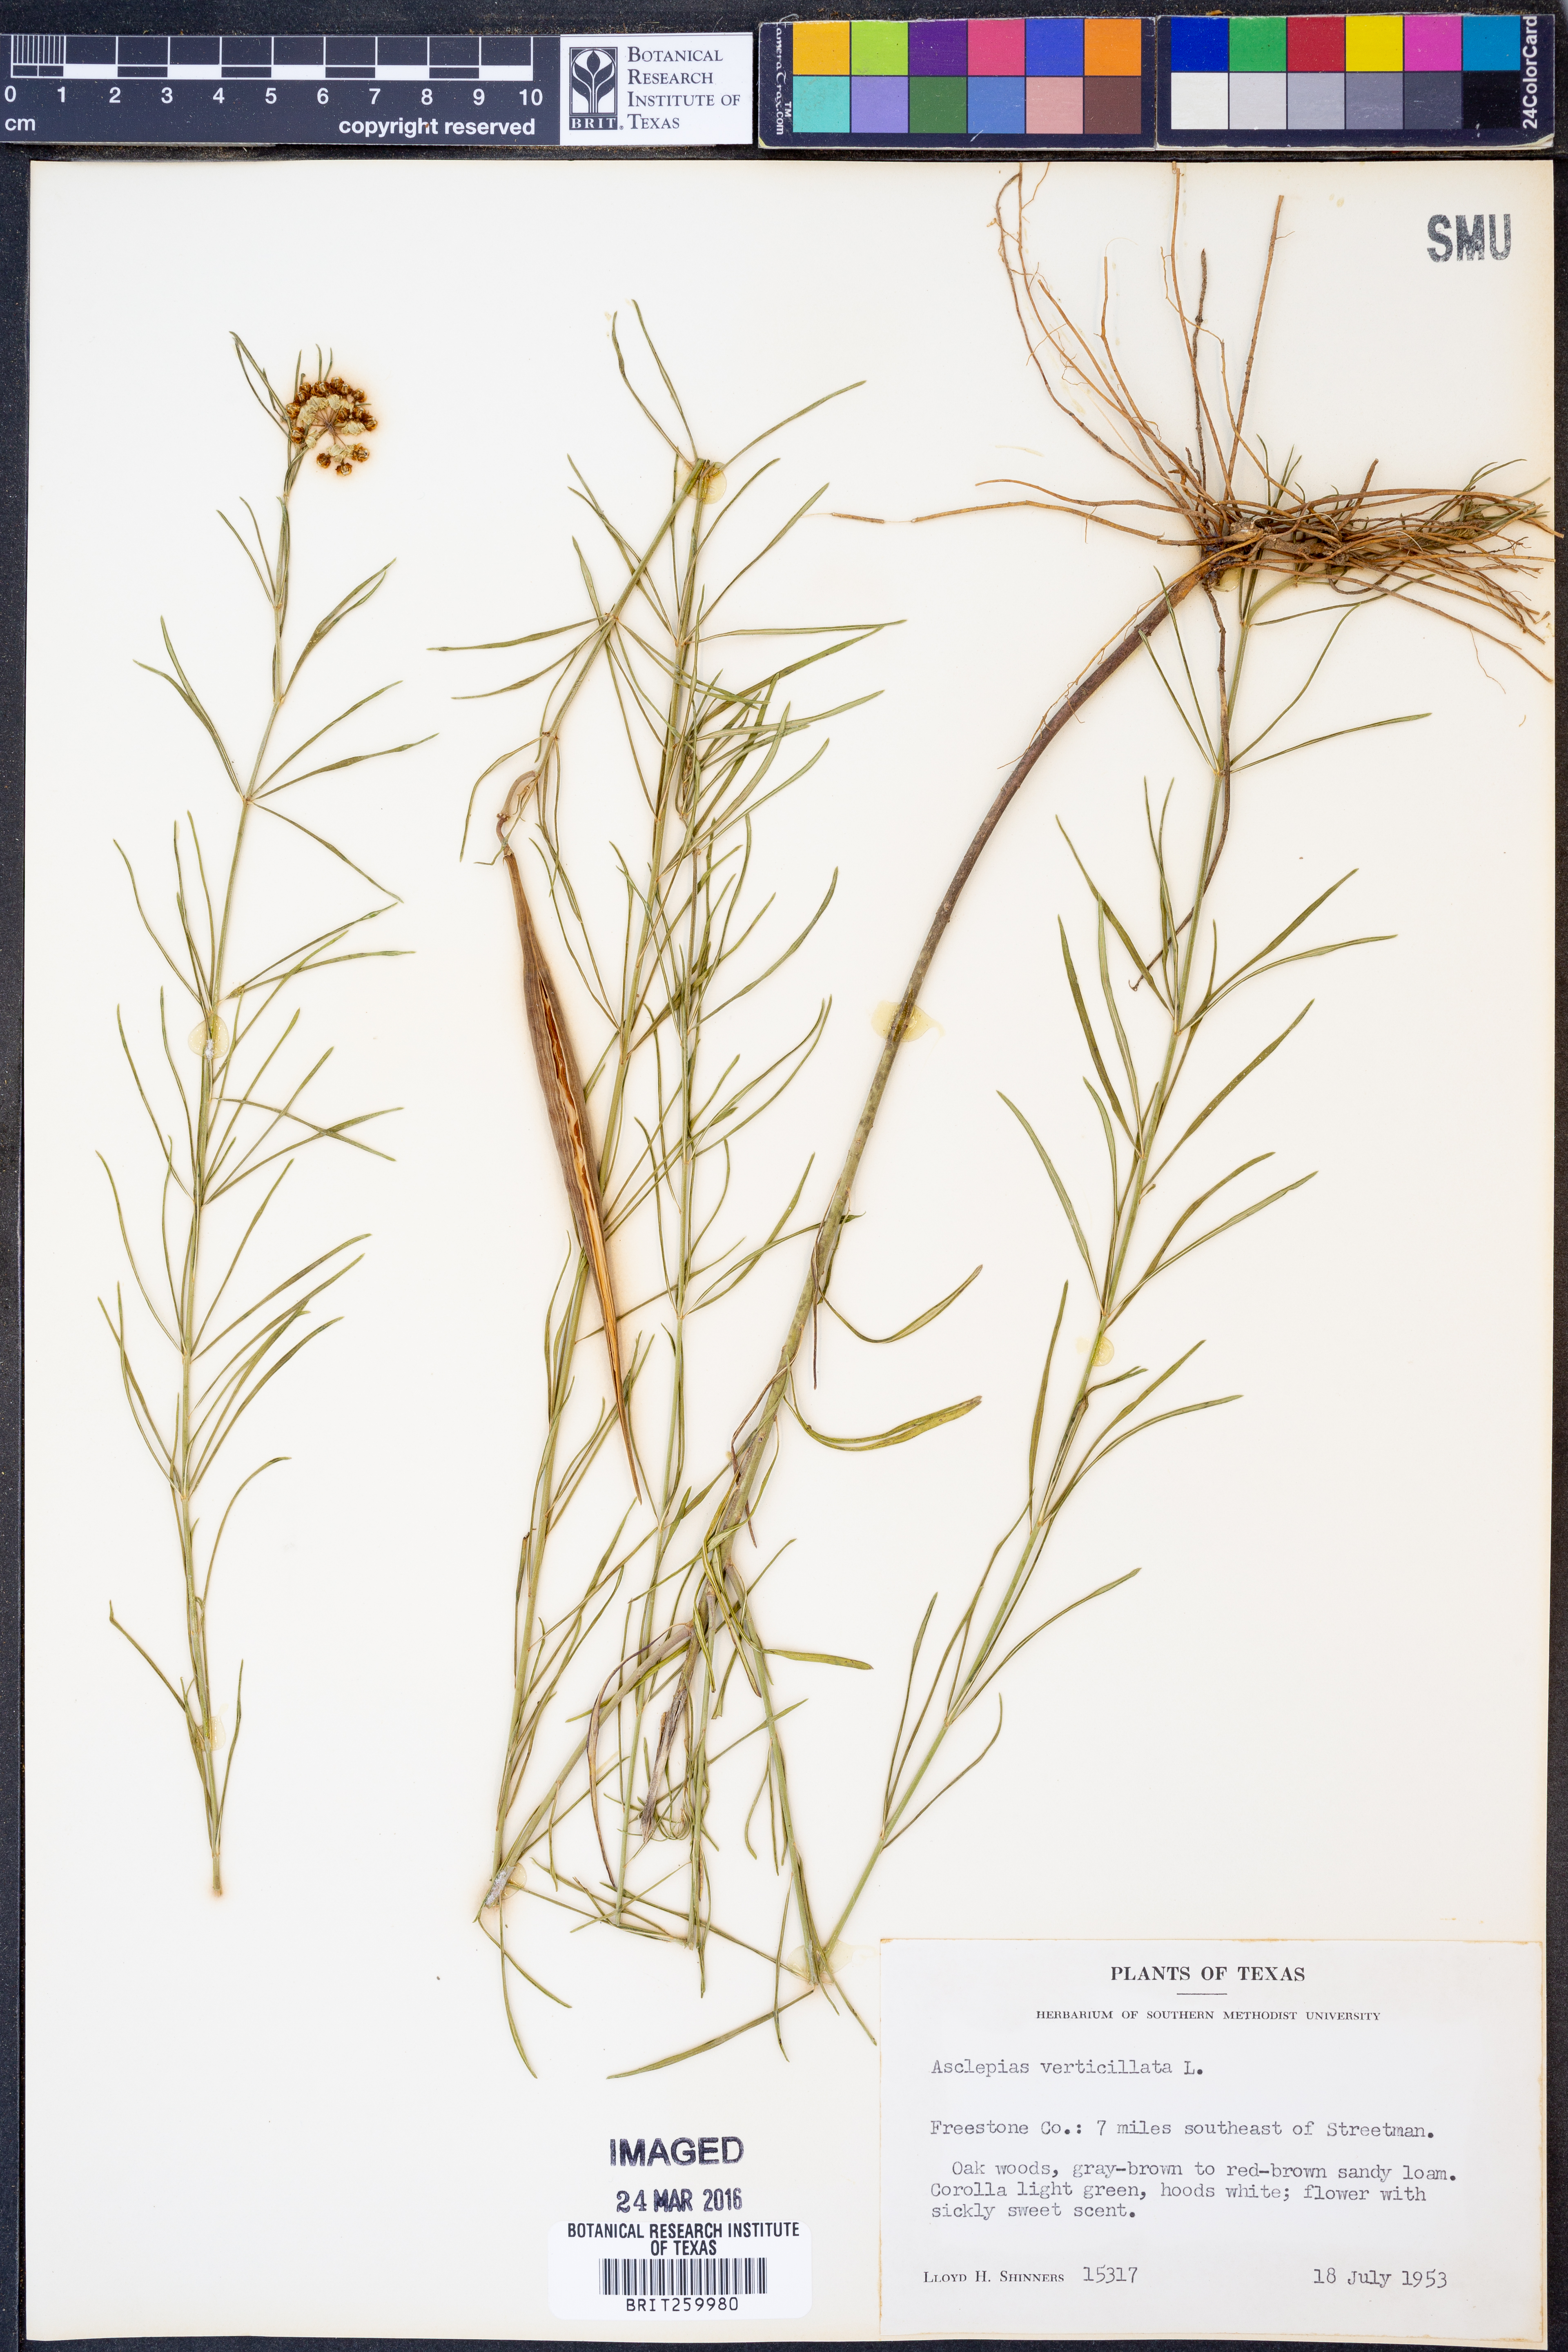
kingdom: Plantae
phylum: Tracheophyta
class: Magnoliopsida
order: Gentianales
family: Apocynaceae
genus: Asclepias
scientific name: Asclepias verticillata
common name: Eastern whorled milkweed
